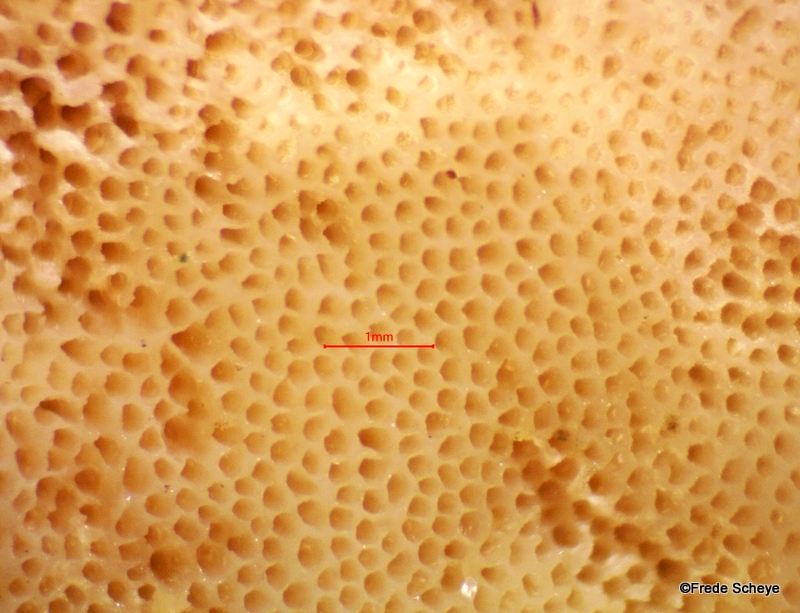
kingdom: Fungi
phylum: Basidiomycota
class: Agaricomycetes
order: Polyporales
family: Ischnodermataceae
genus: Ischnoderma
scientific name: Ischnoderma resinosum
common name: løv-tjæreporesvamp
